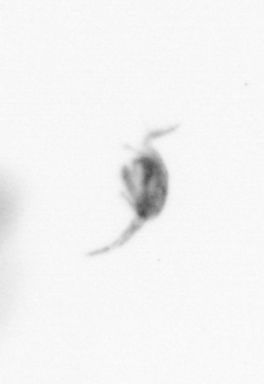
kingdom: Animalia
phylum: Arthropoda
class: Copepoda
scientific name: Copepoda
